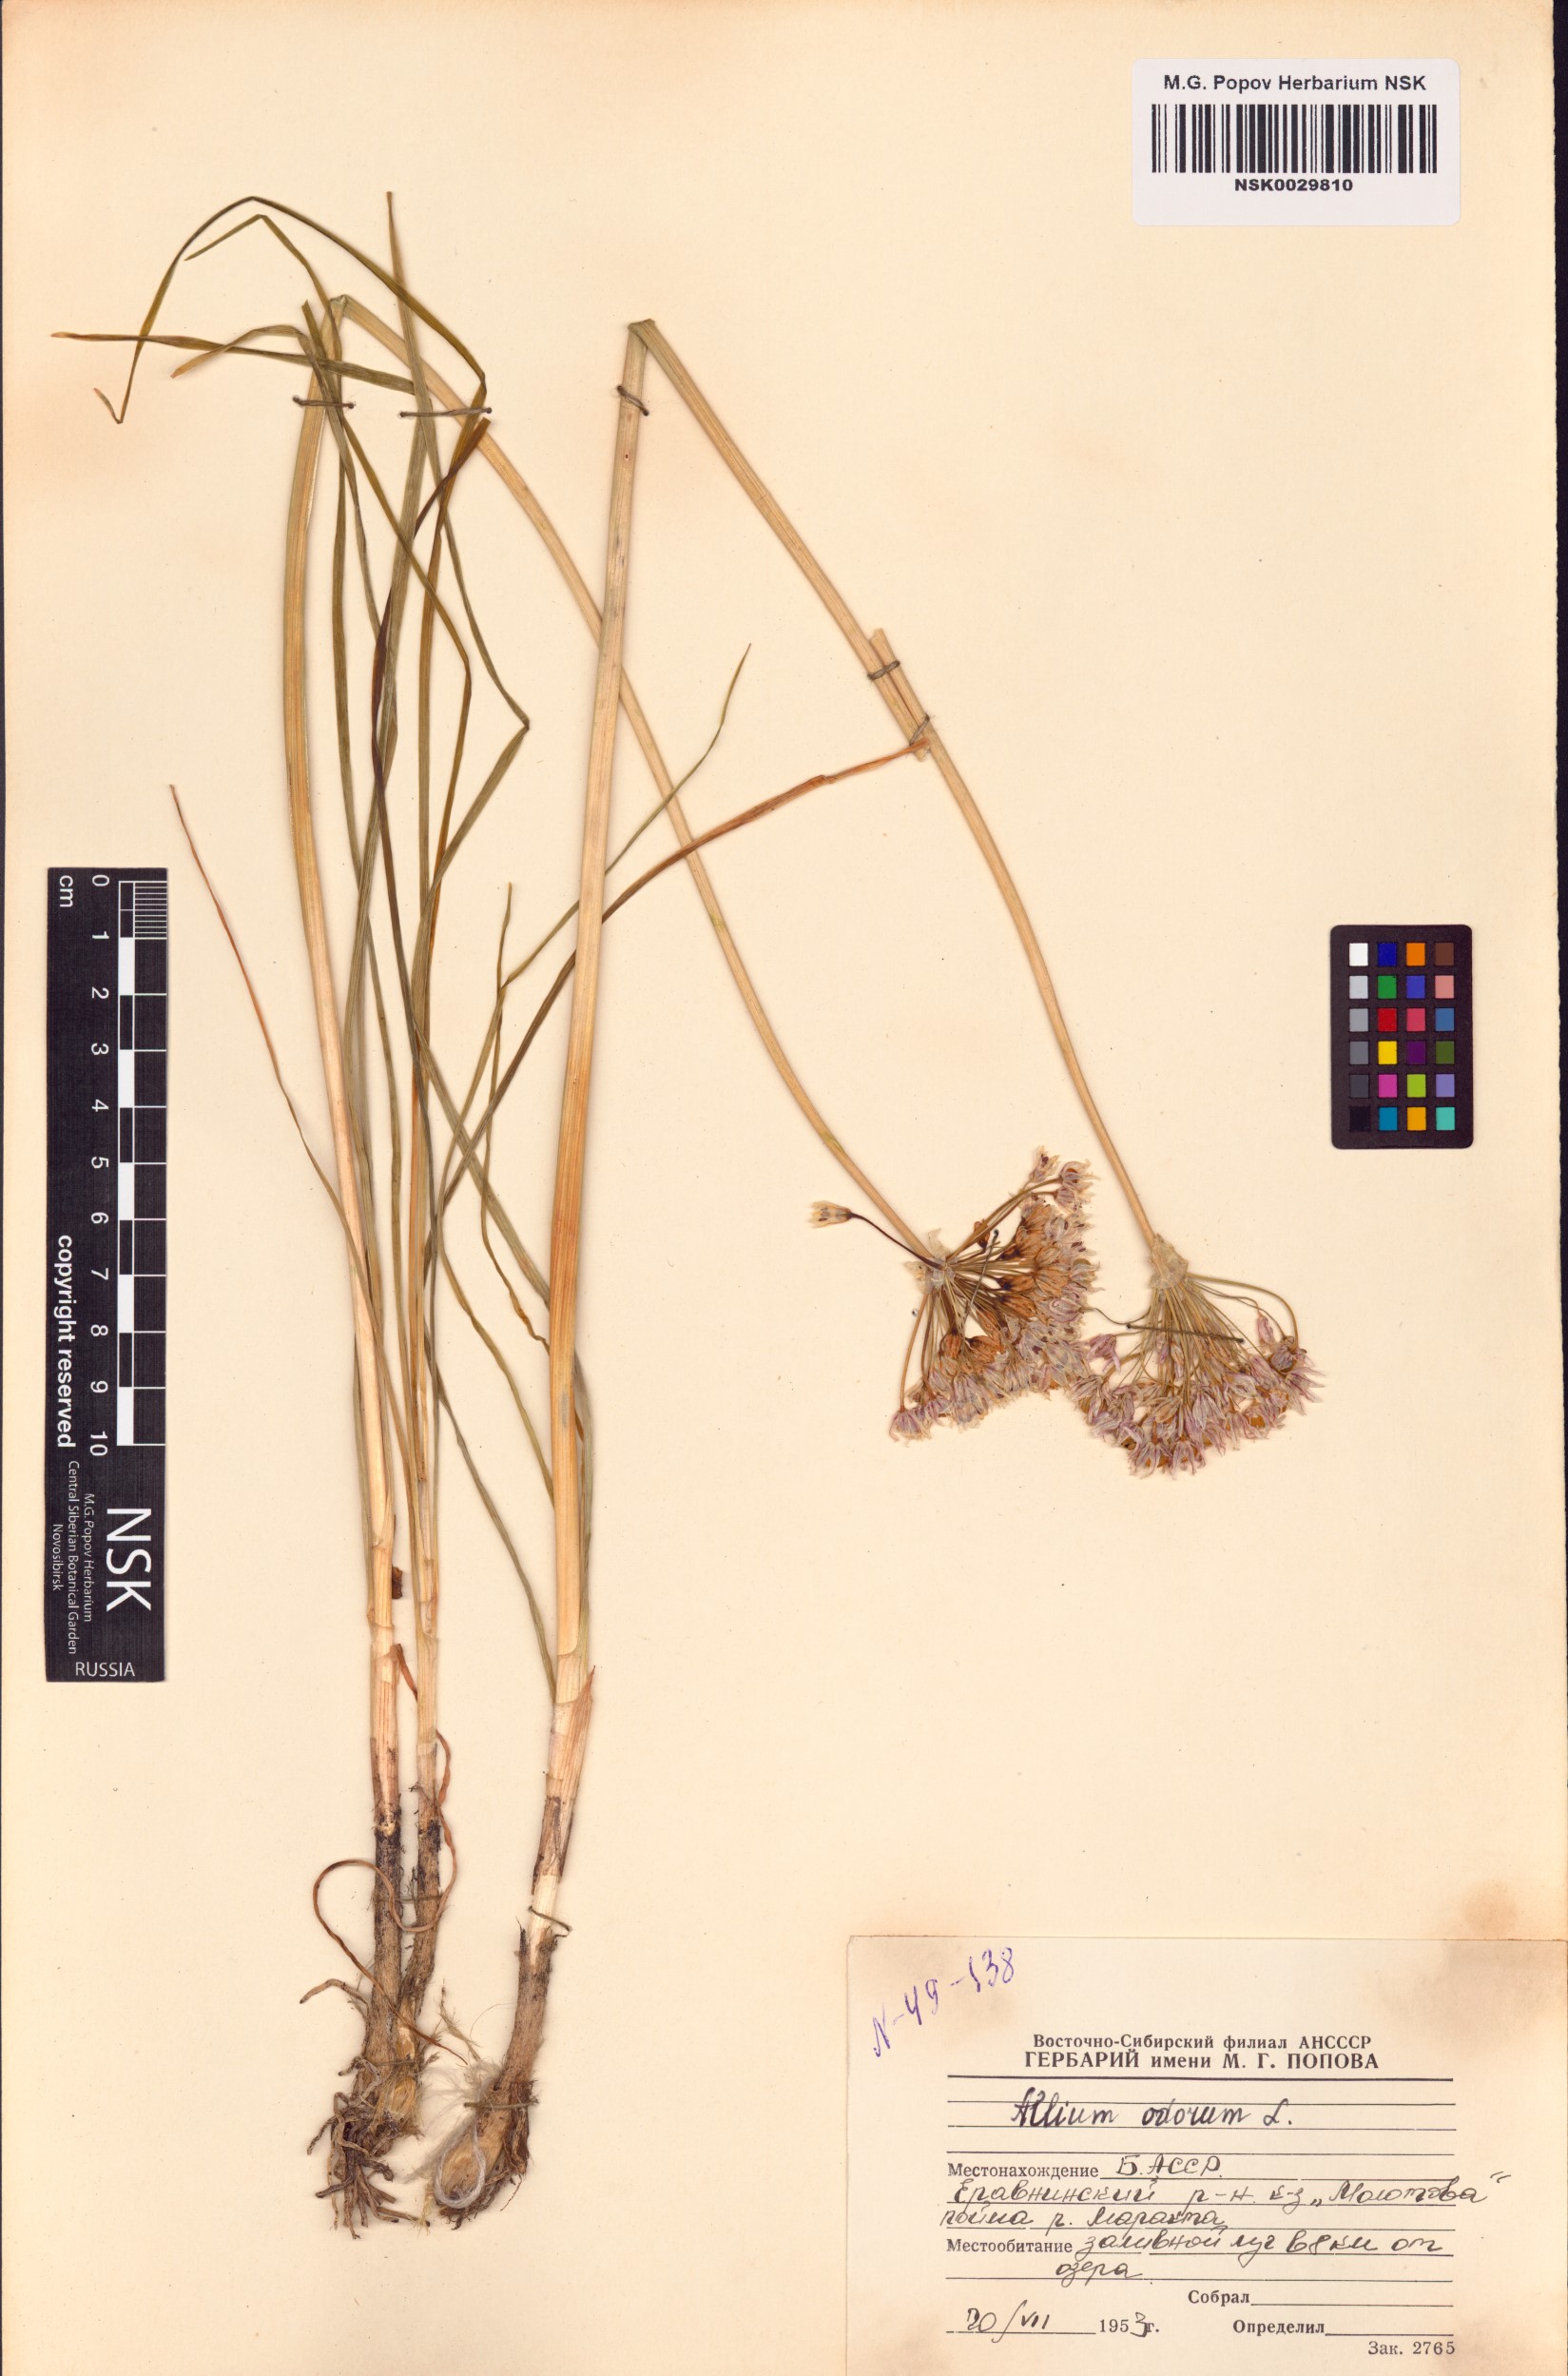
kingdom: Plantae
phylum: Tracheophyta
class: Liliopsida
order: Asparagales
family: Amaryllidaceae
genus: Allium
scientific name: Allium ramosum
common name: Fragrant garlic
